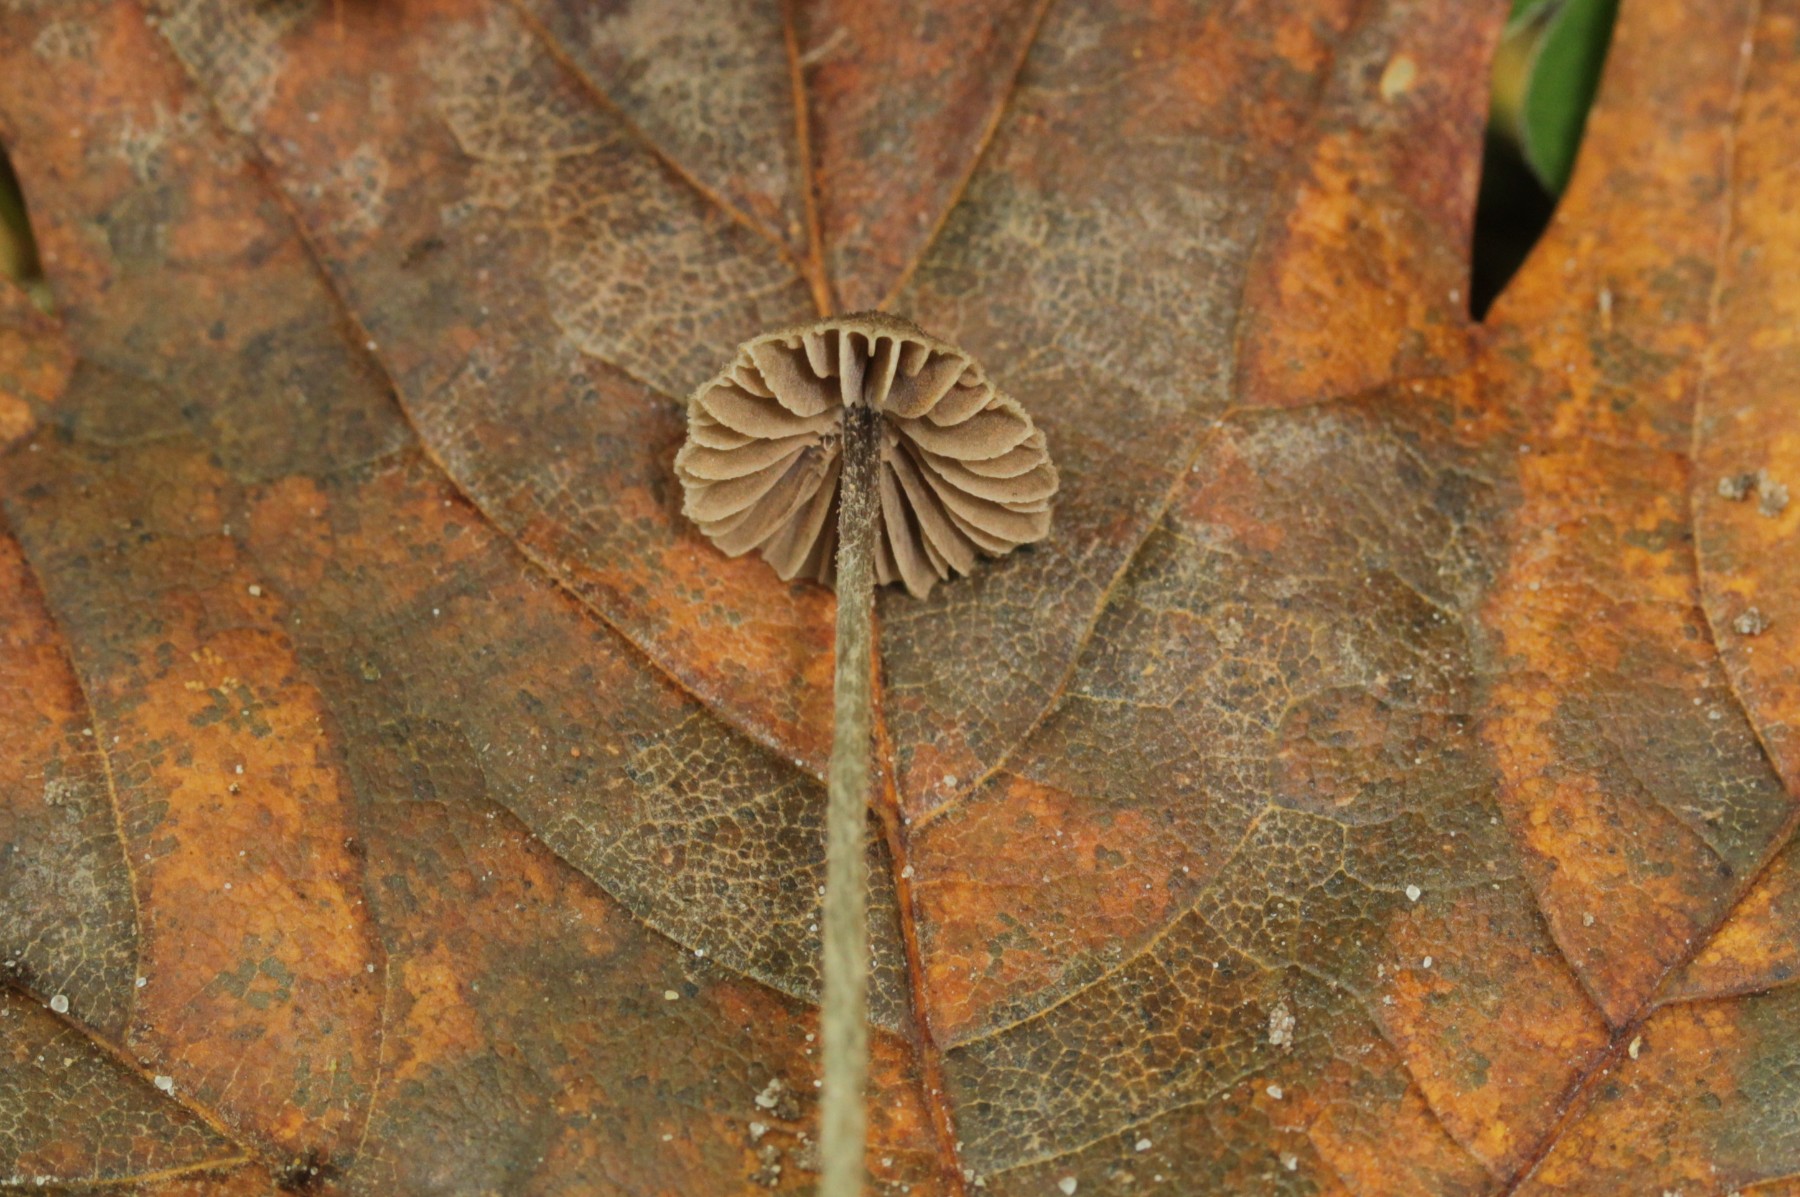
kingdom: Fungi
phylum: Basidiomycota
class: Agaricomycetes
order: Agaricales
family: Entolomataceae
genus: Entoloma
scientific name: Entoloma dysthaloides
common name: dyster rødblad
